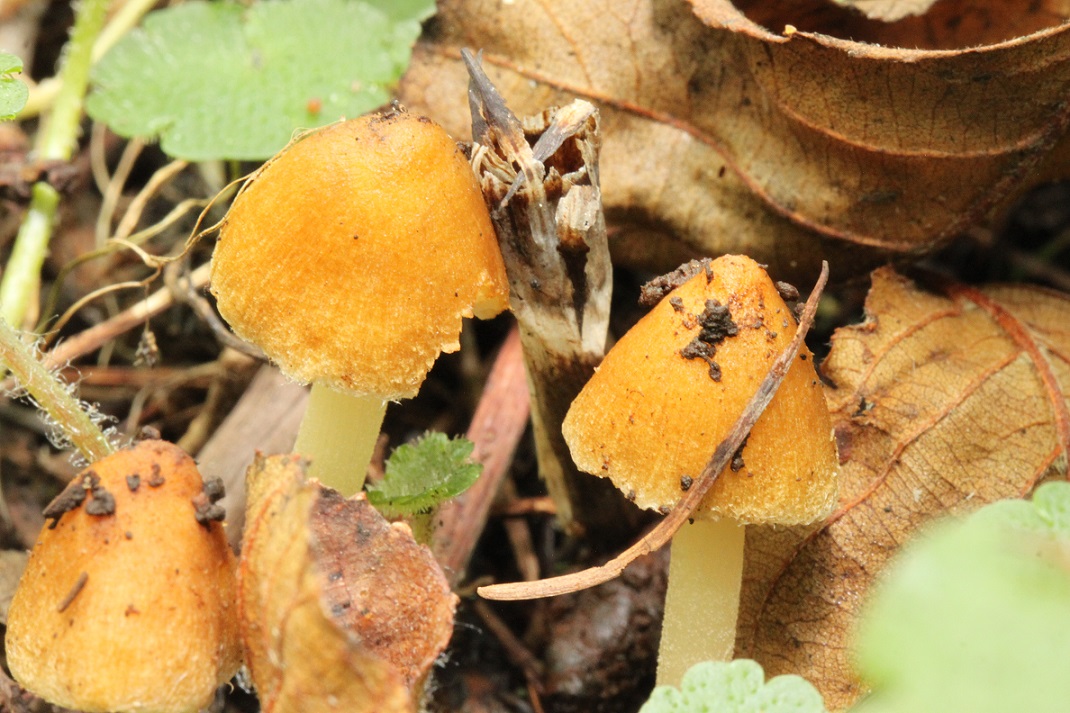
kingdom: Fungi
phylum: Basidiomycota
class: Agaricomycetes
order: Agaricales
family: Inocybaceae
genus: Inocybe
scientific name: Inocybe salicis
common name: pile-trævlhat
